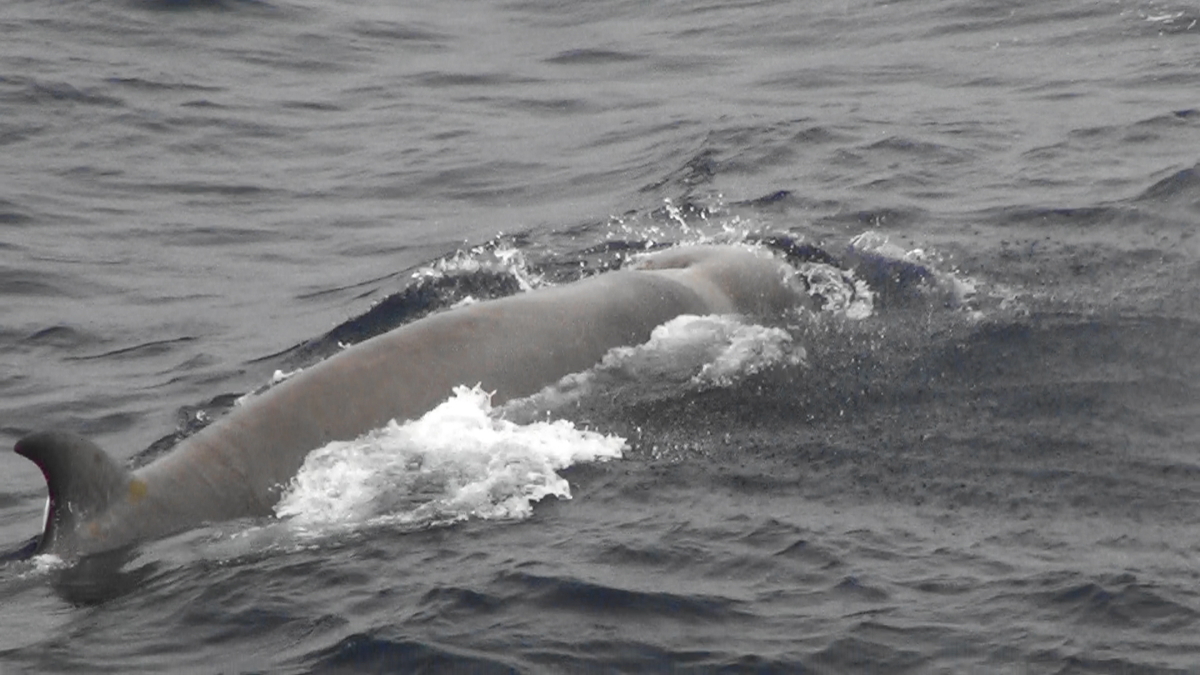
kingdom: Animalia
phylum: Chordata
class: Mammalia
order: Cetacea
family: Hyperoodontidae
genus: Hyperoodon
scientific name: Hyperoodon ampullatus
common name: Northern bottlenose whale
